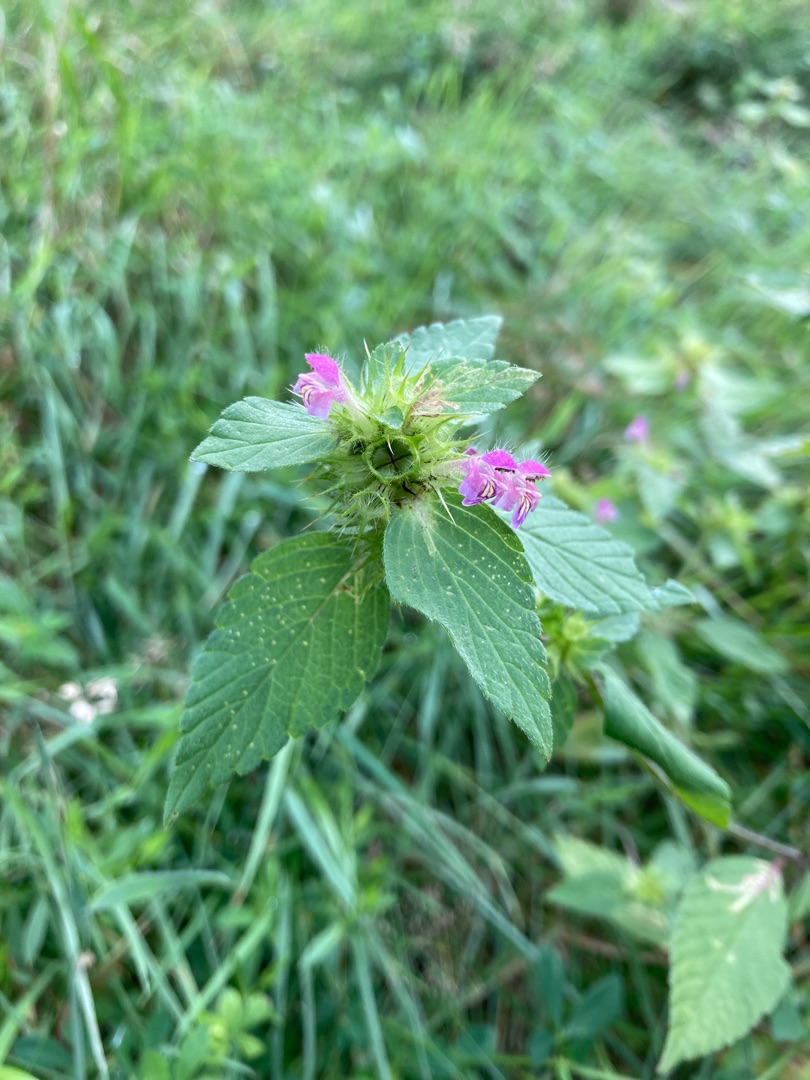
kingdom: Plantae
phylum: Tracheophyta
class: Magnoliopsida
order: Lamiales
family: Lamiaceae
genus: Galeopsis
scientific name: Galeopsis bifida
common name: Skov-hanekro
